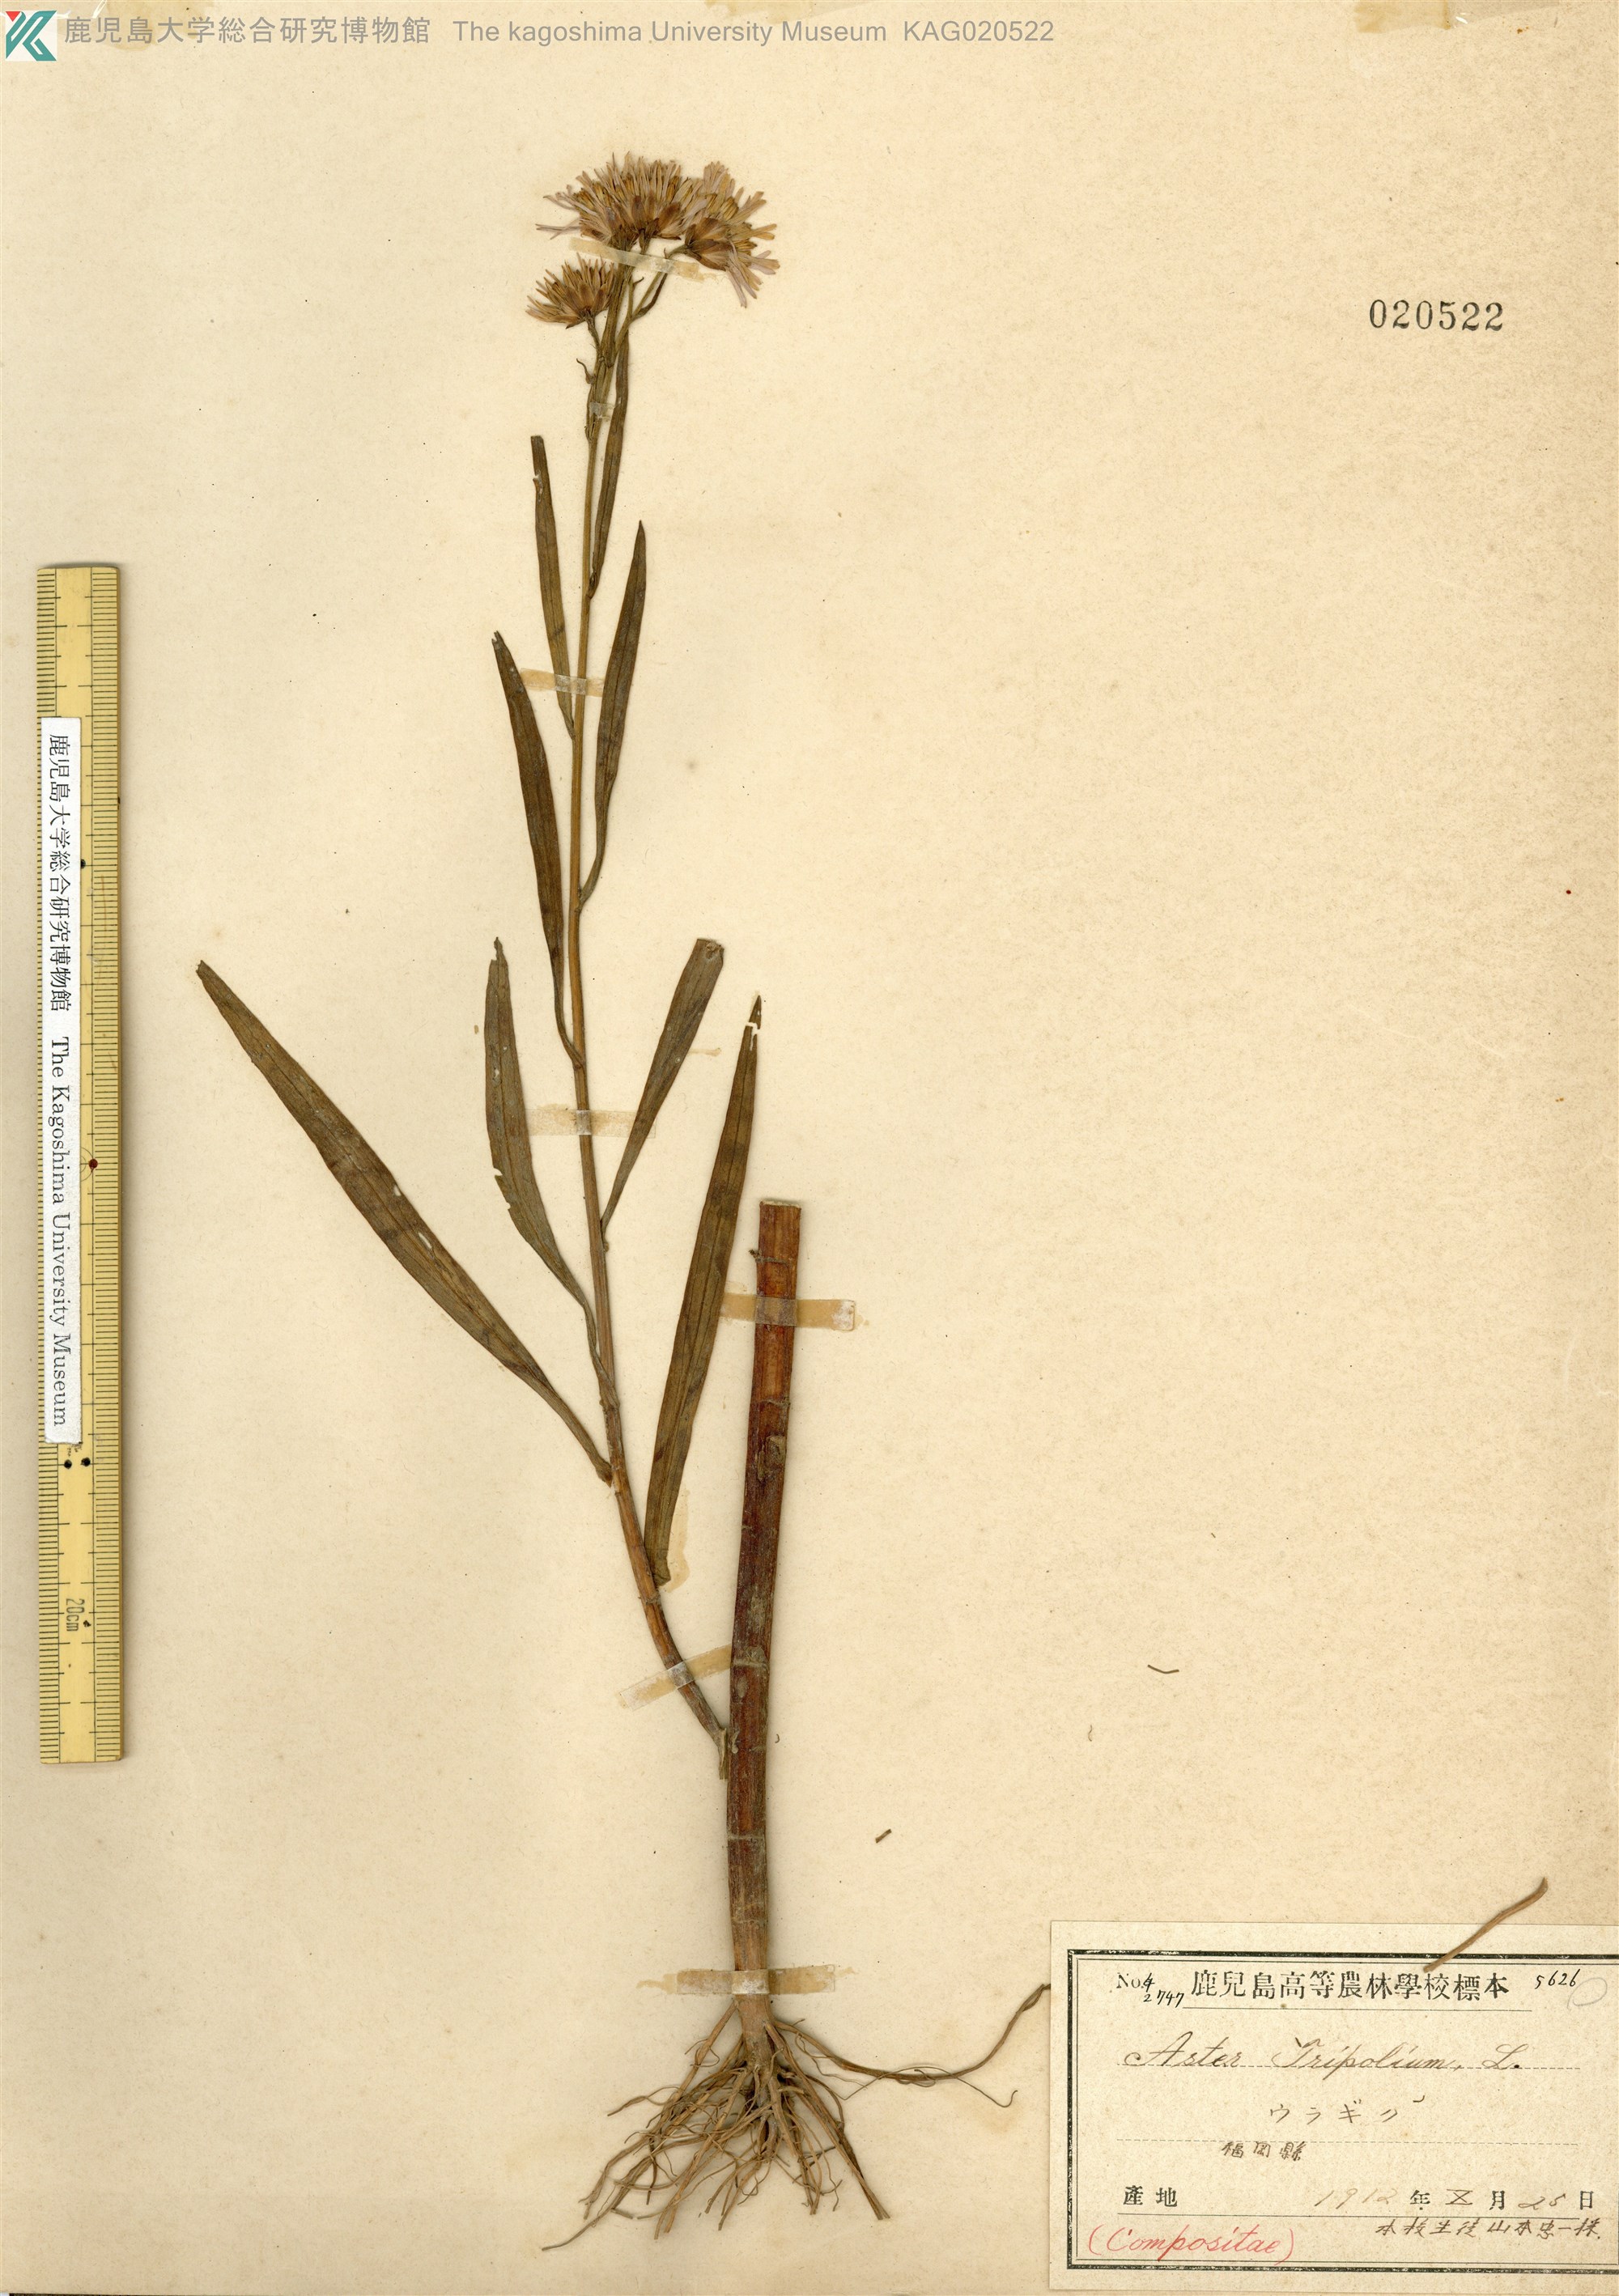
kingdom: Plantae
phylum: Tracheophyta
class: Magnoliopsida
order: Asterales
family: Asteraceae
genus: Tripolium
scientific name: Tripolium pannonicum
